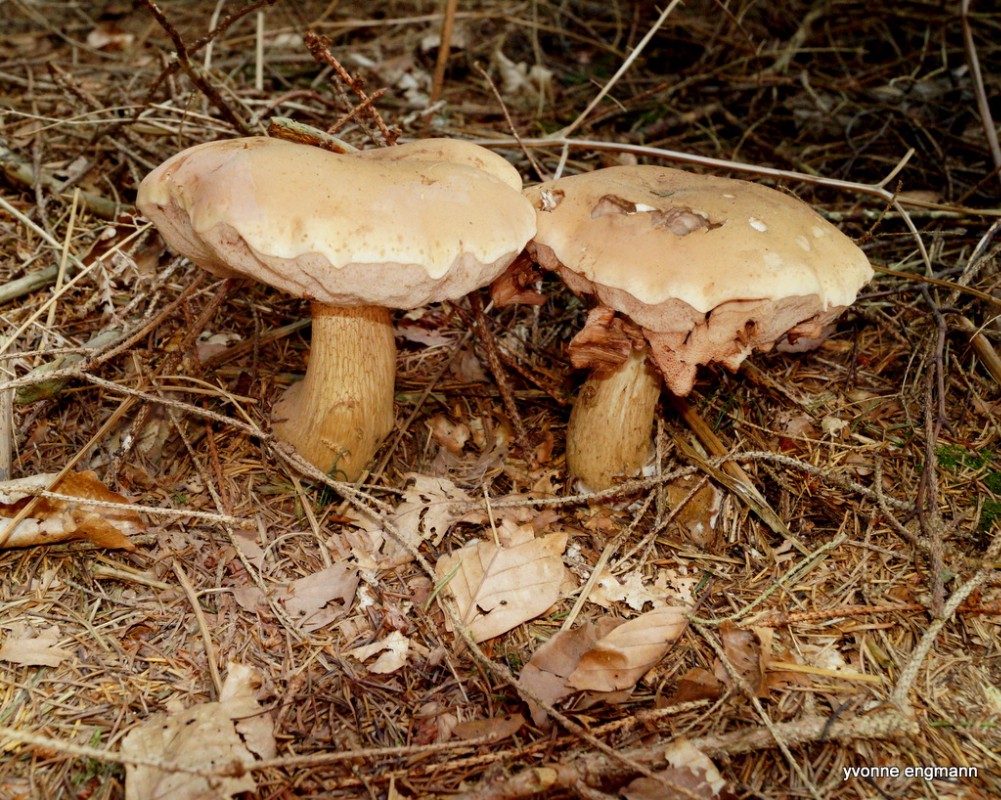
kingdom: Fungi
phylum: Basidiomycota
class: Agaricomycetes
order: Boletales
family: Boletaceae
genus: Tylopilus
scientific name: Tylopilus felleus
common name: galderørhat
